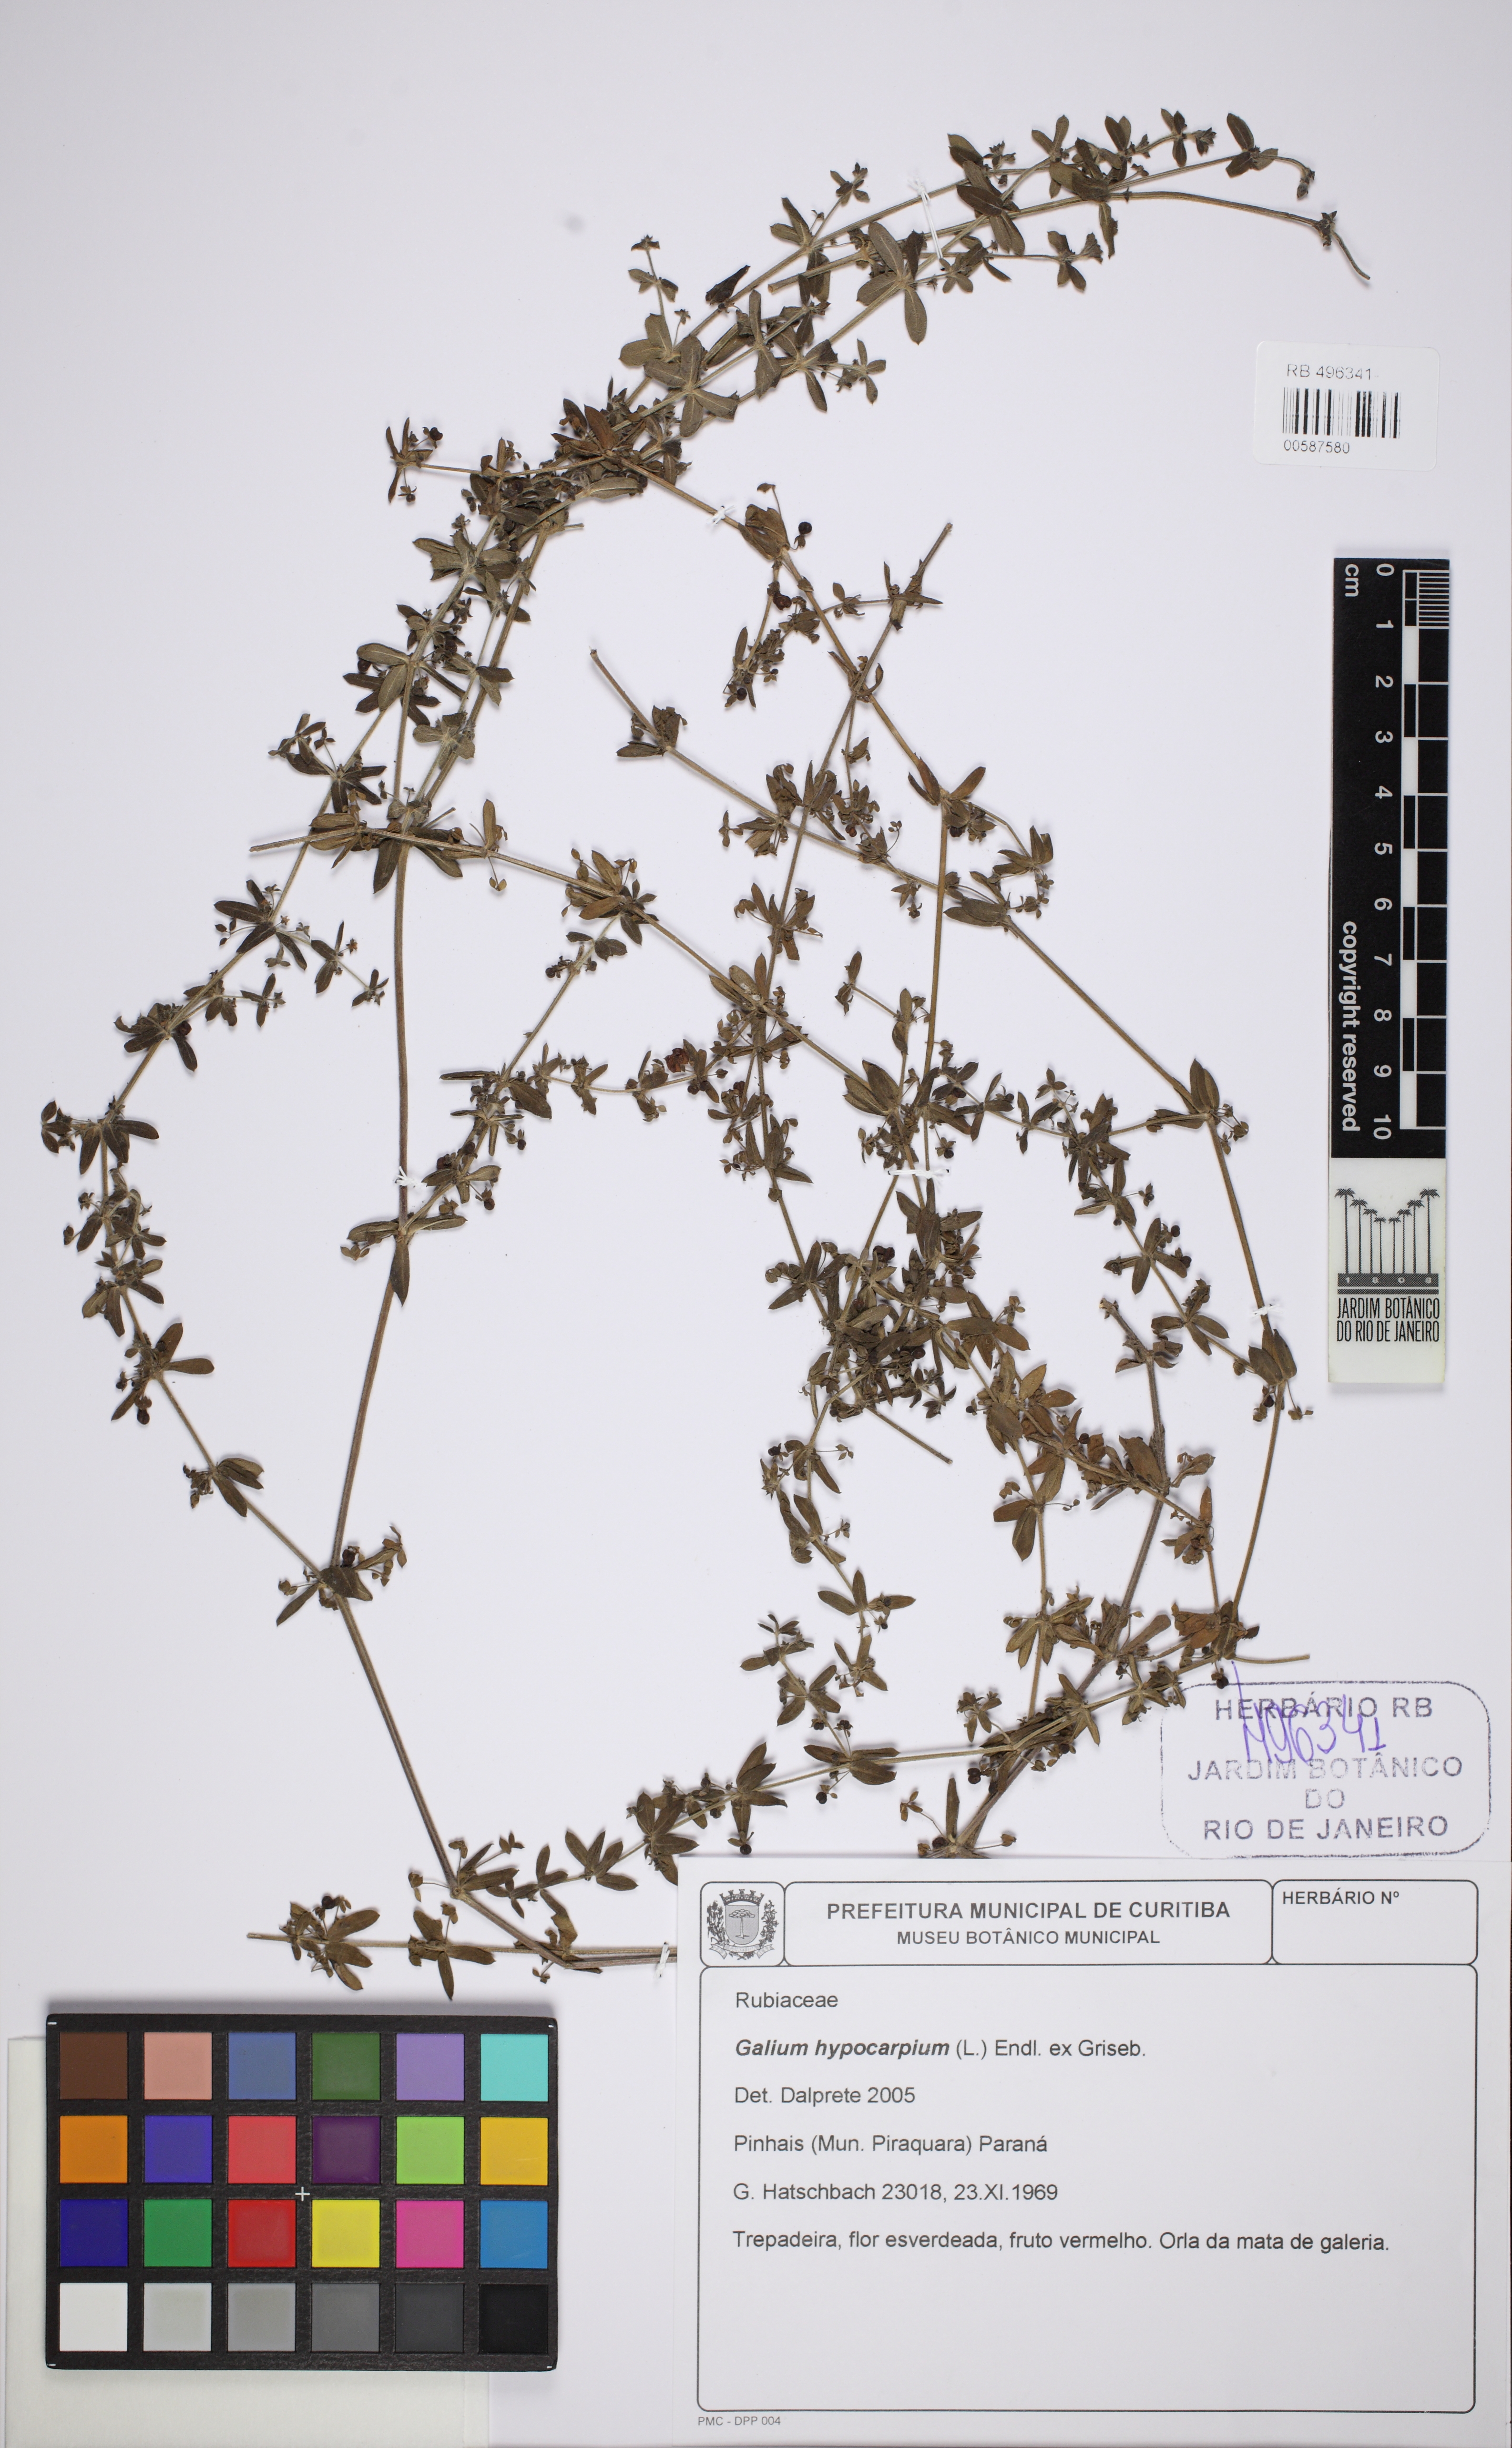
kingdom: Plantae
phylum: Tracheophyta
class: Magnoliopsida
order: Gentianales
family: Rubiaceae
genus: Galium
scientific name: Galium hypocarpium
